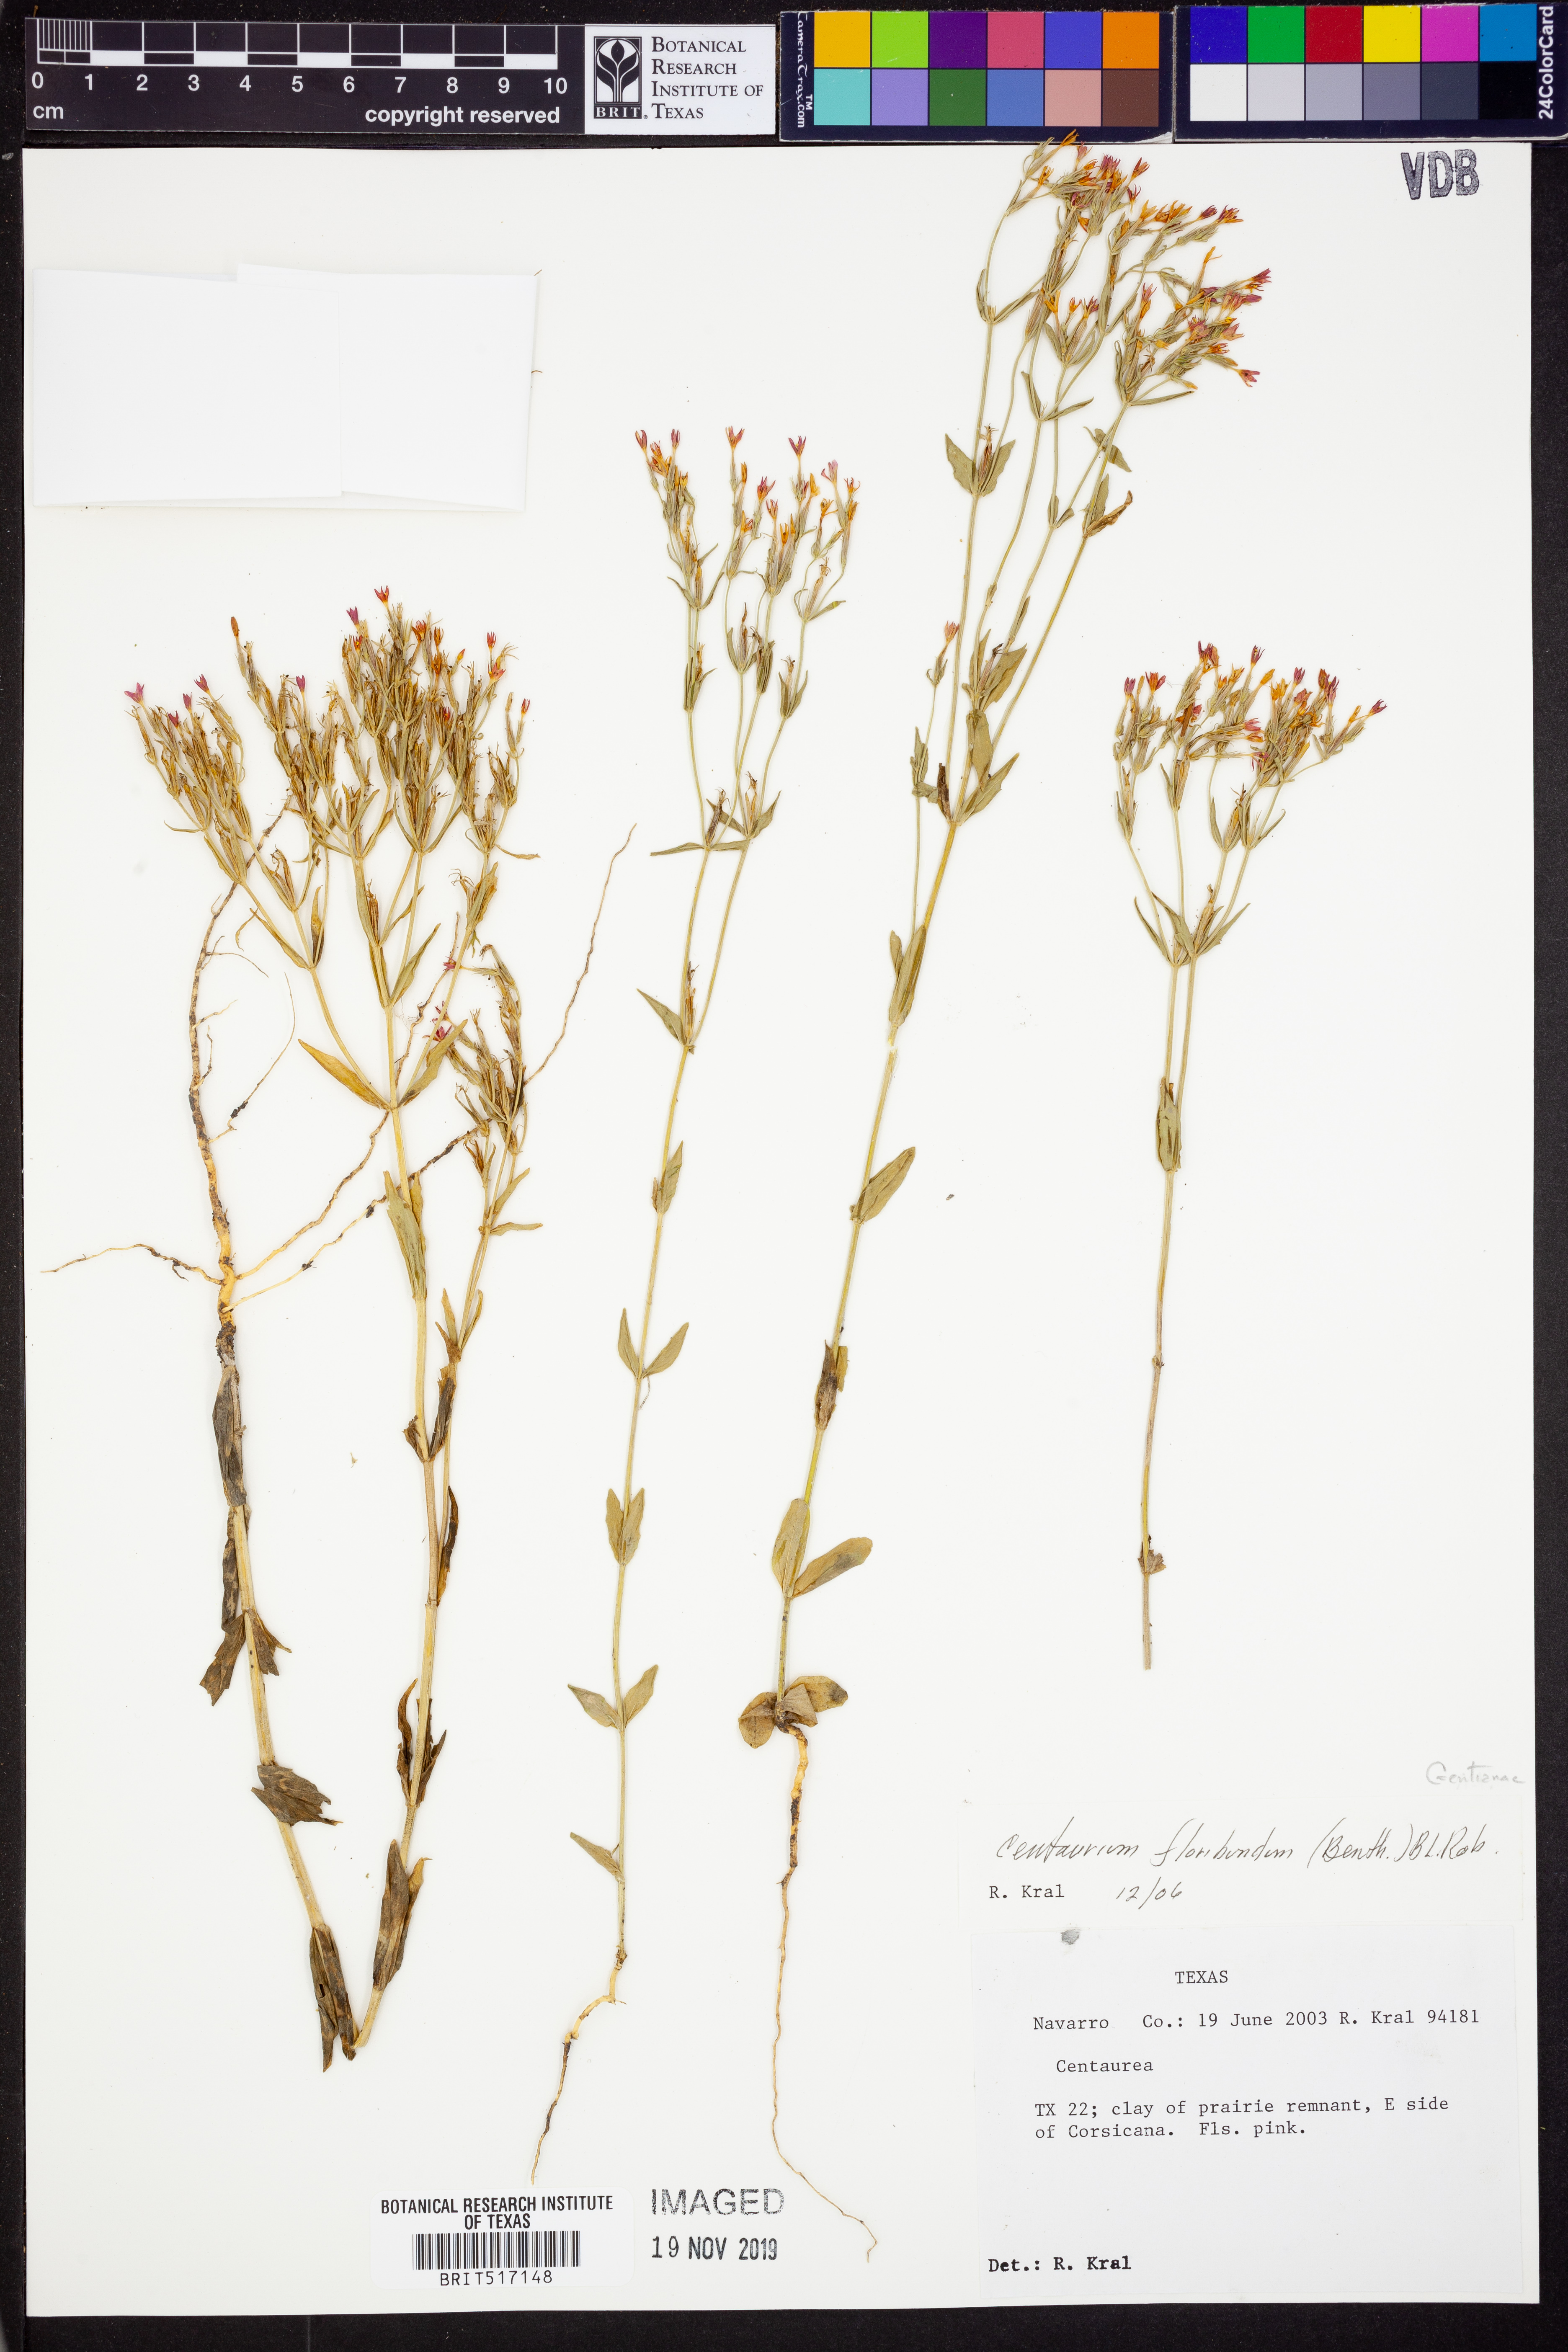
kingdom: Plantae
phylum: Tracheophyta
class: Magnoliopsida
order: Gentianales
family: Gentianaceae
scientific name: Gentianaceae
